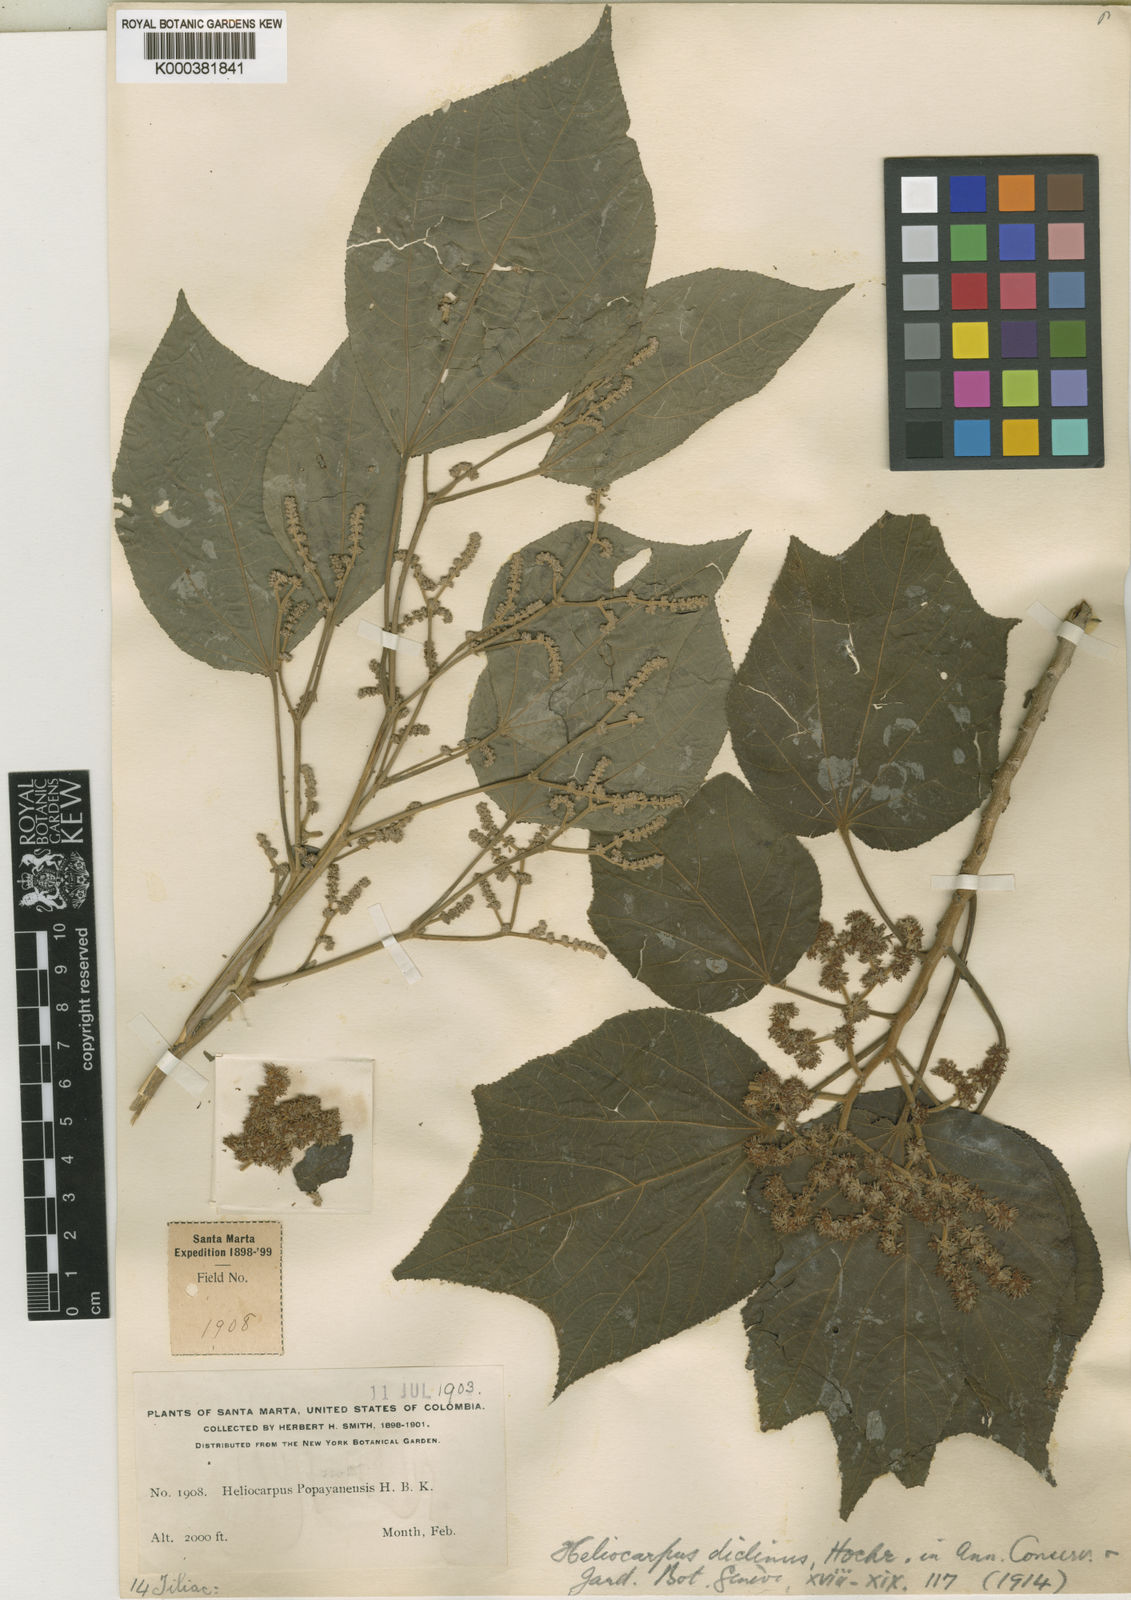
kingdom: Plantae
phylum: Tracheophyta
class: Magnoliopsida
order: Malvales
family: Malvaceae
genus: Heliocarpus
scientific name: Heliocarpus americanus
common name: White moho
